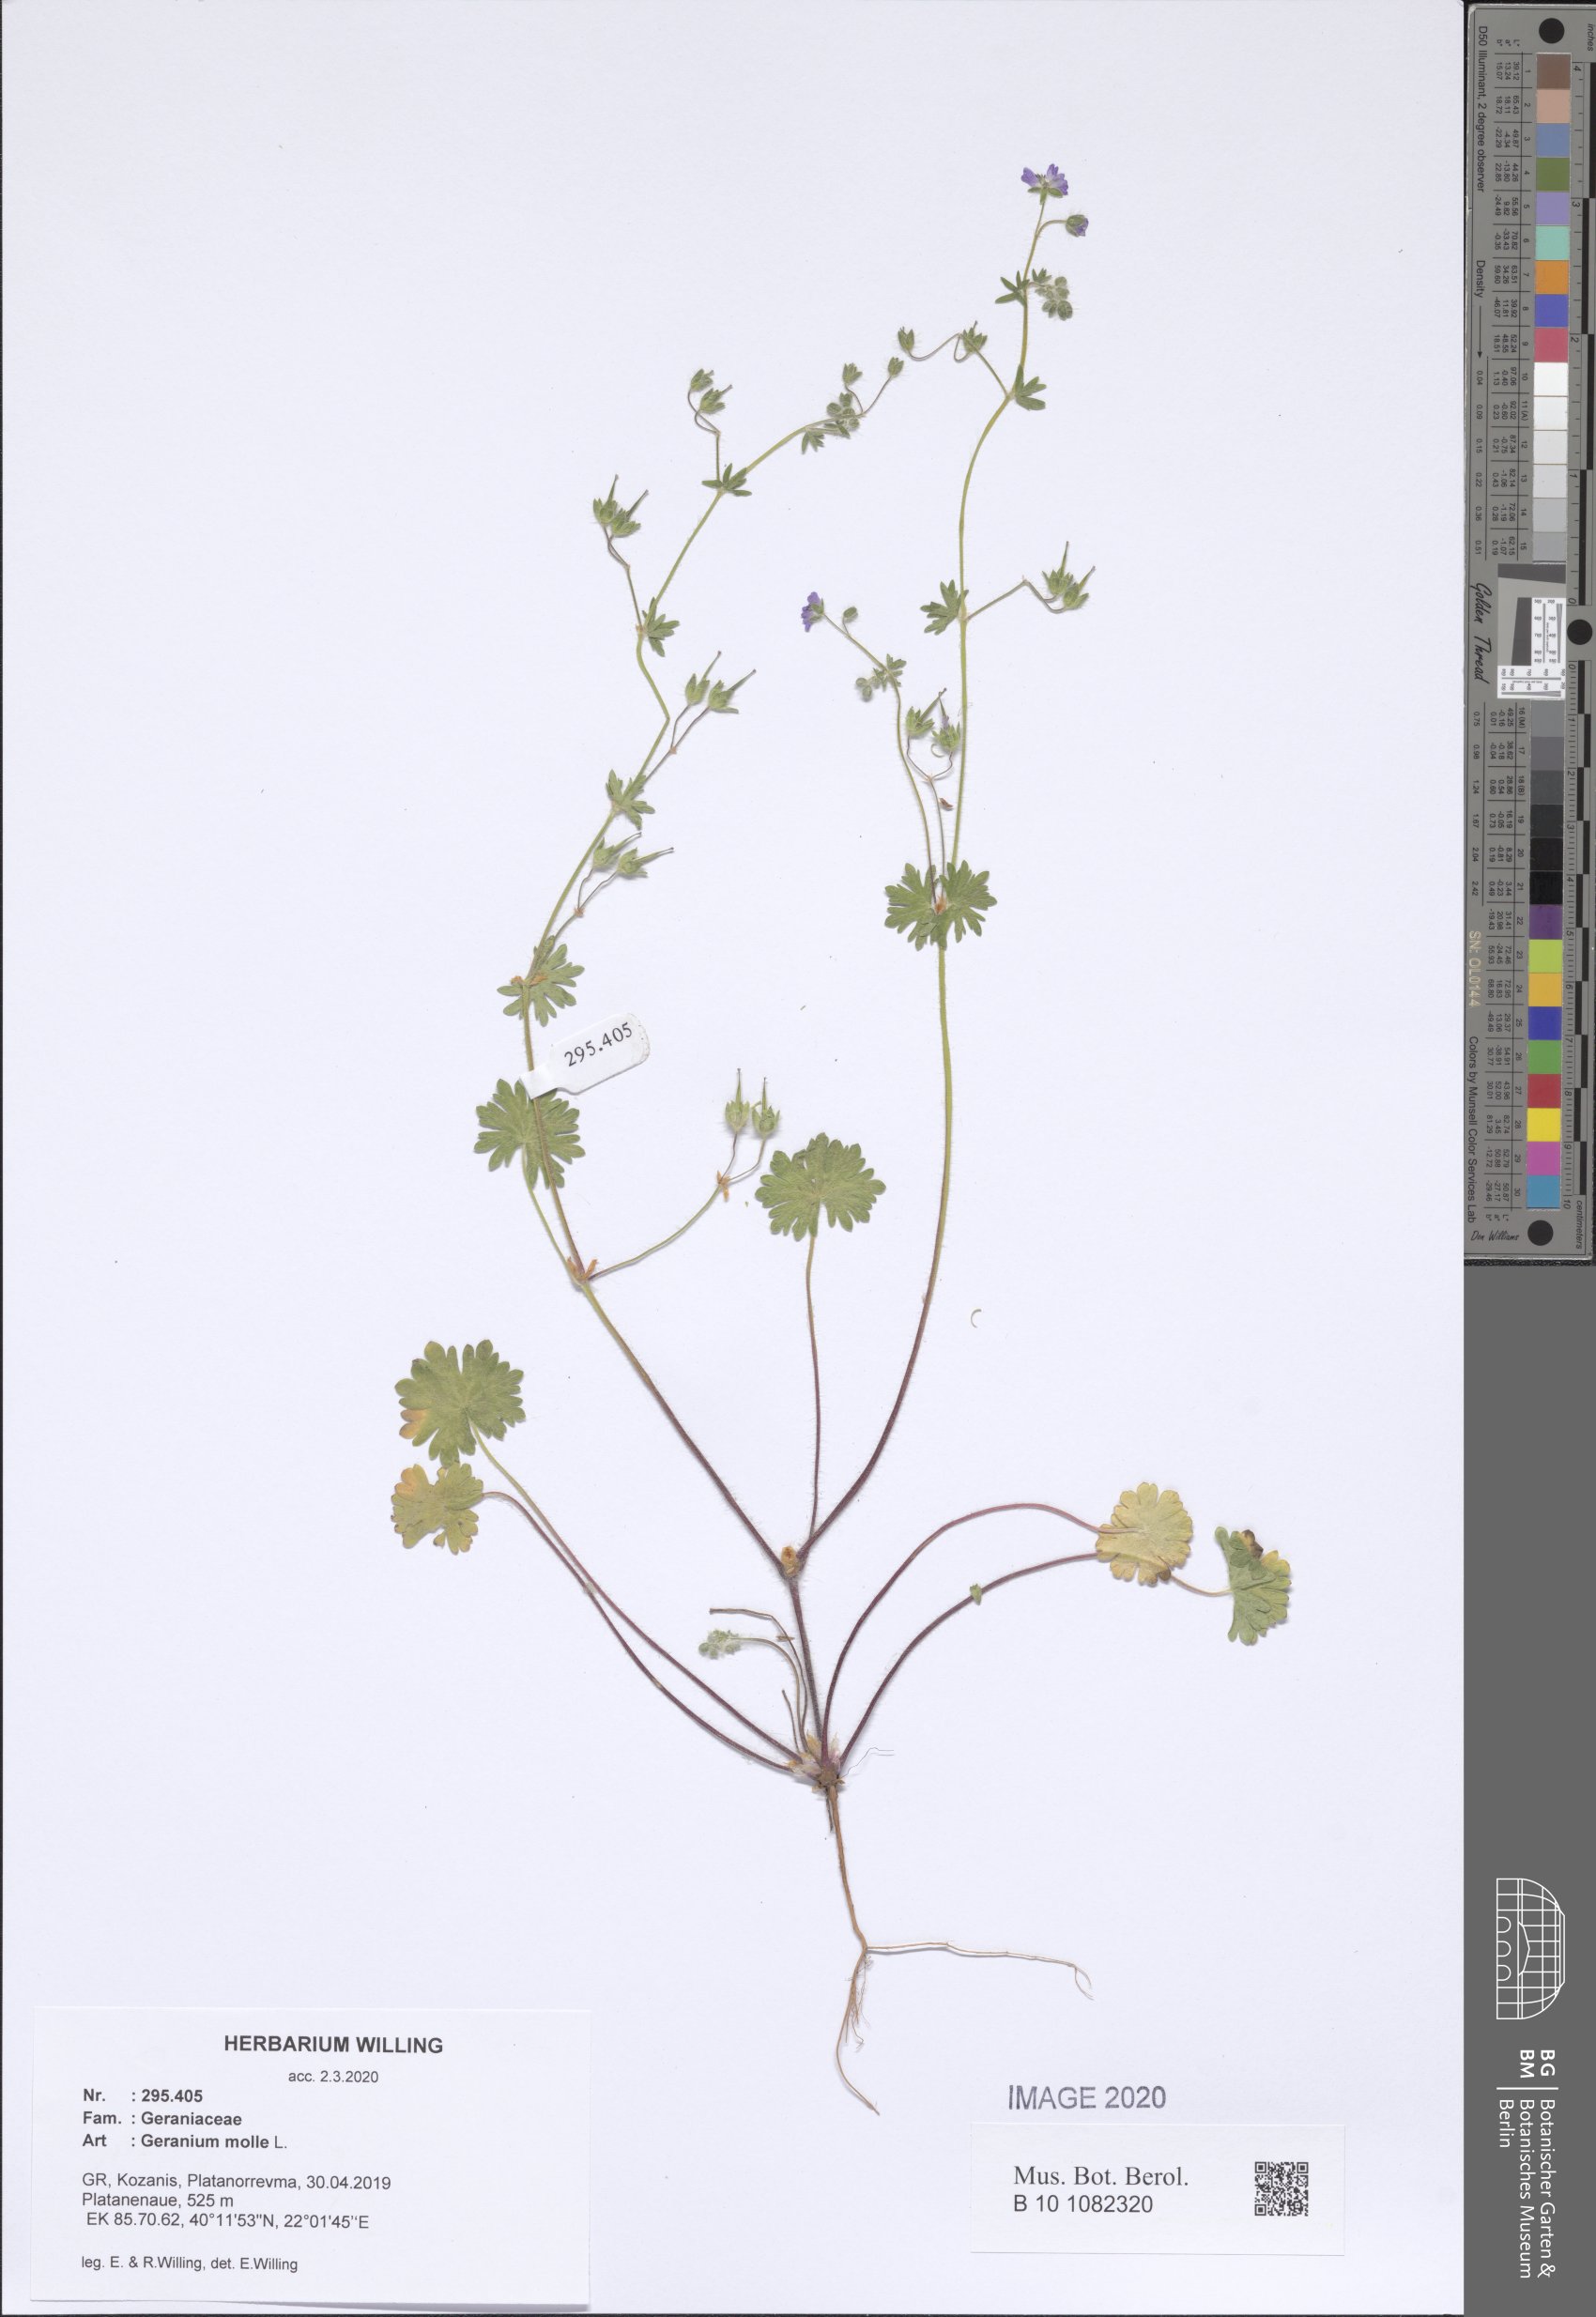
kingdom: Plantae
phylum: Tracheophyta
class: Magnoliopsida
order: Geraniales
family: Geraniaceae
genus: Geranium
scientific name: Geranium molle
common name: Dove's-foot crane's-bill
